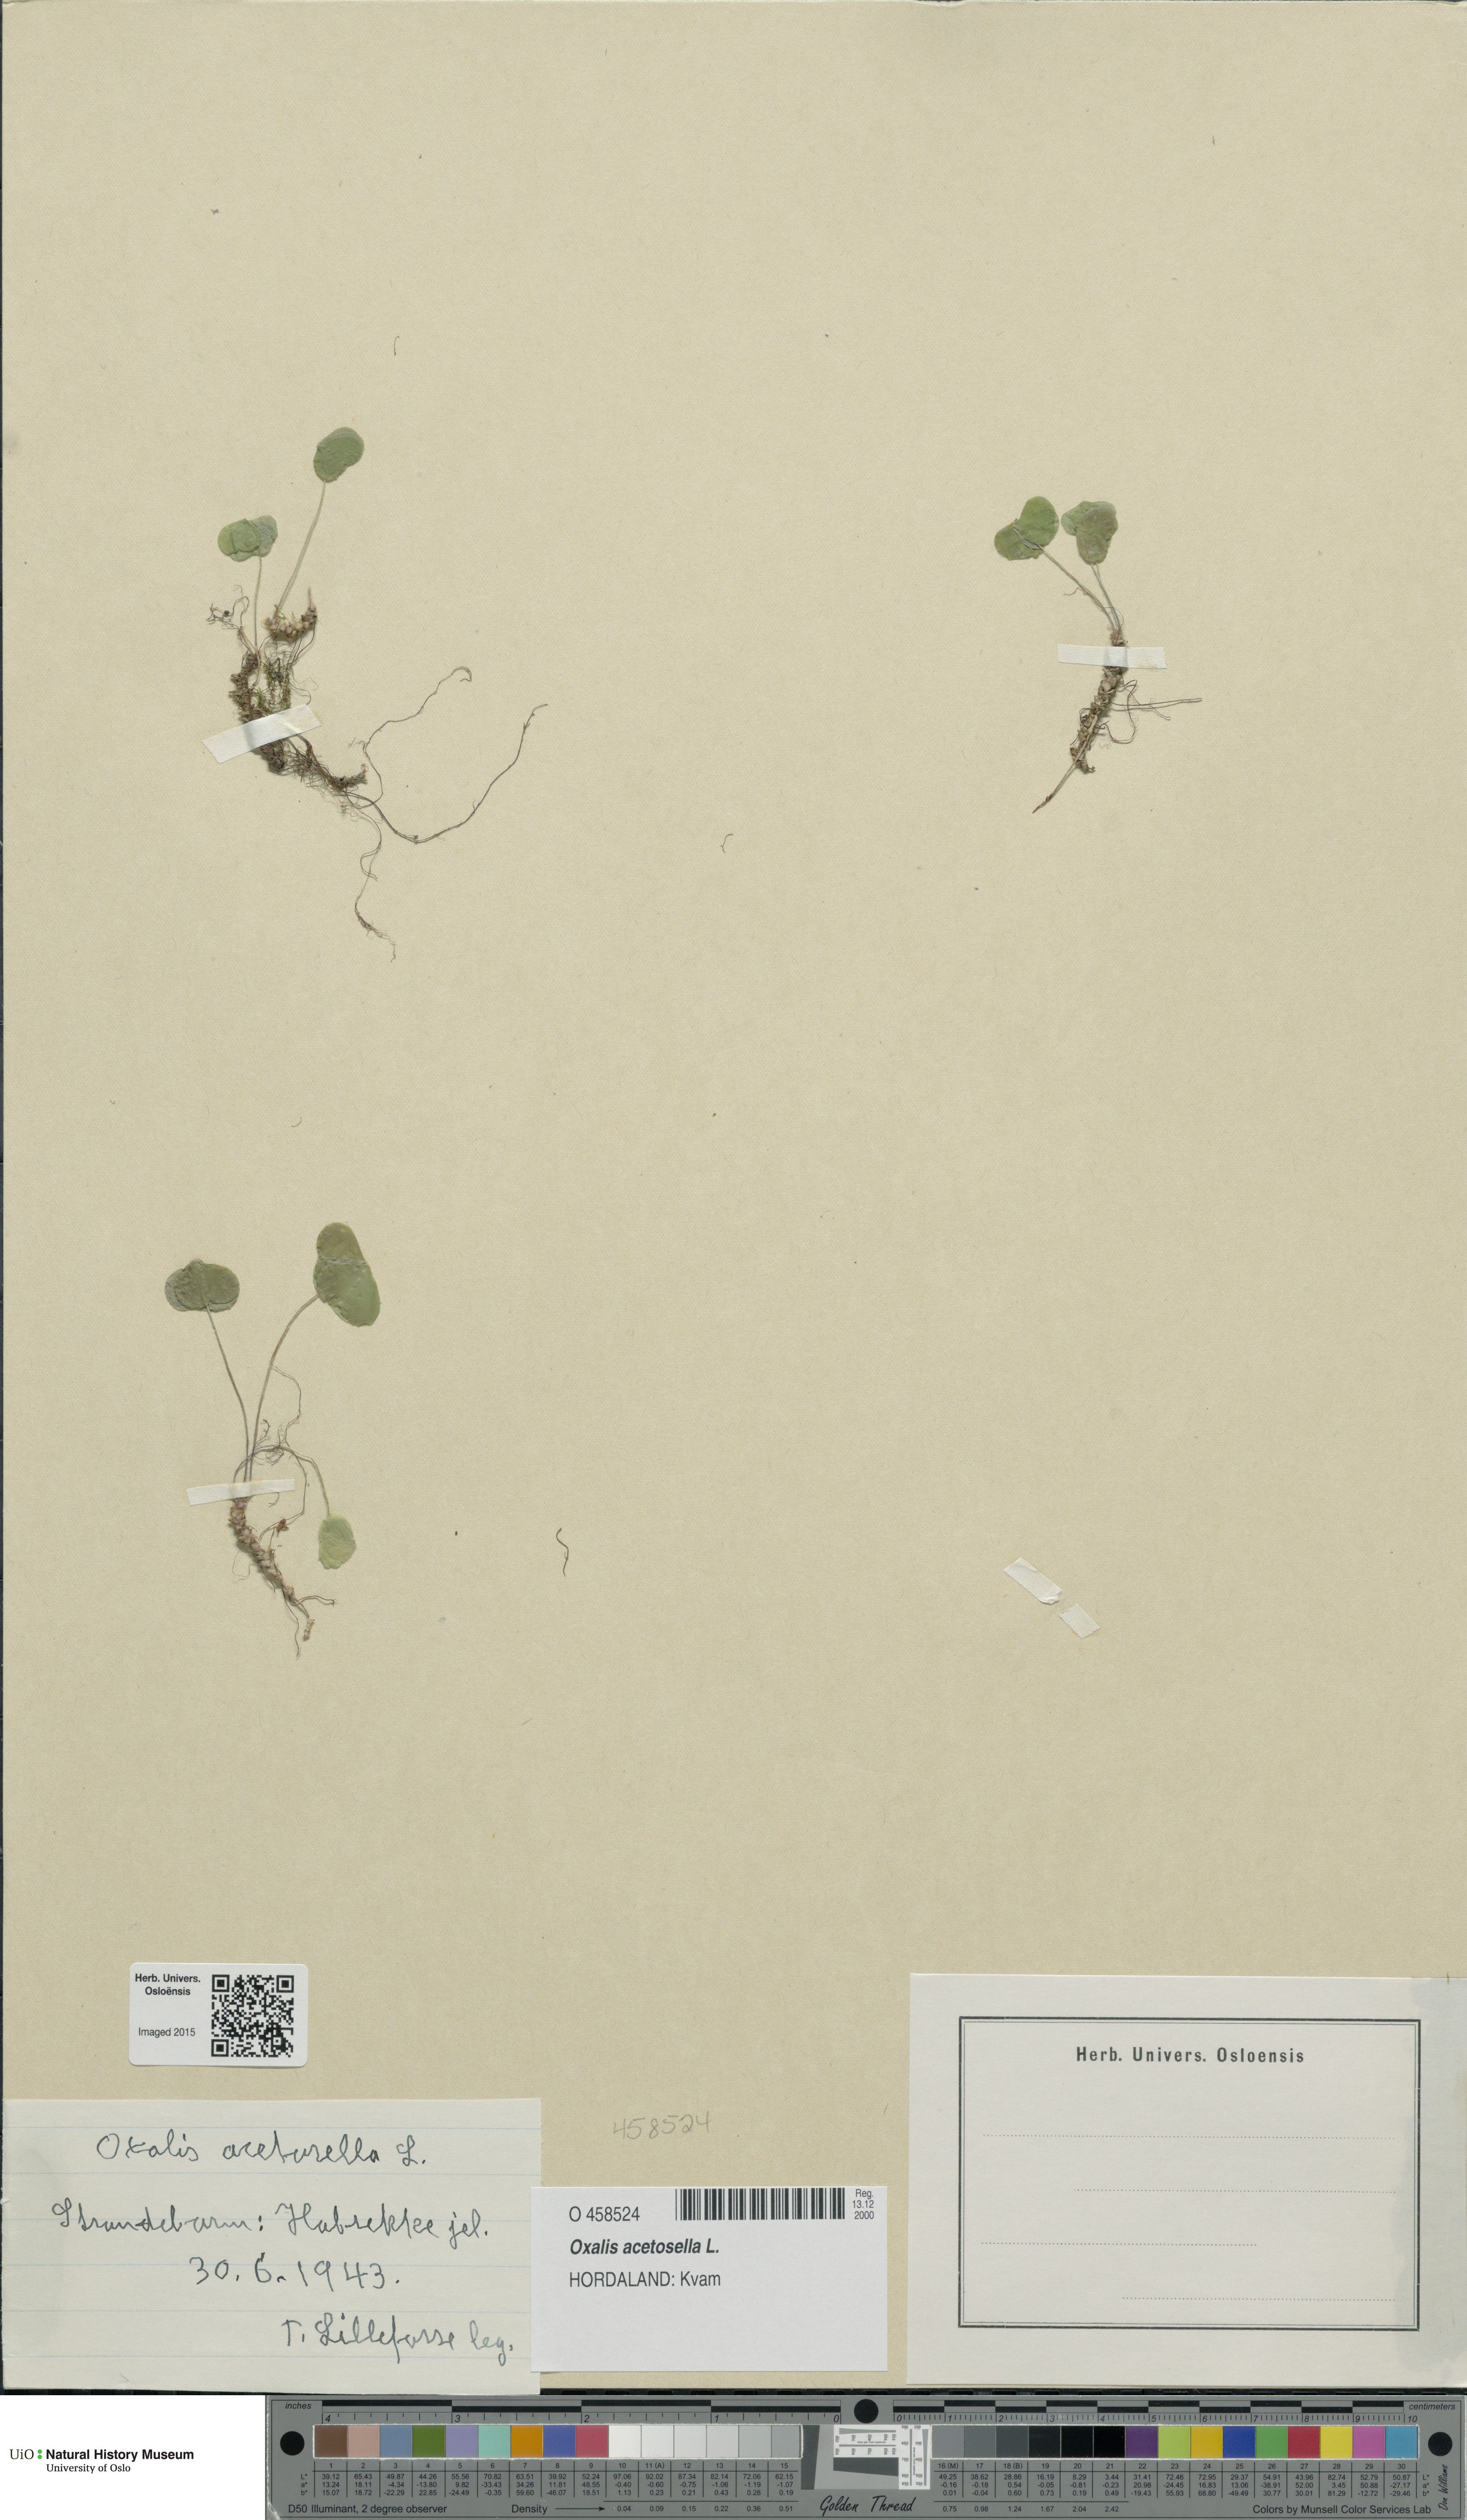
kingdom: Plantae
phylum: Tracheophyta
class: Magnoliopsida
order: Oxalidales
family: Oxalidaceae
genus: Oxalis
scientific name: Oxalis acetosella
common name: Wood-sorrel
